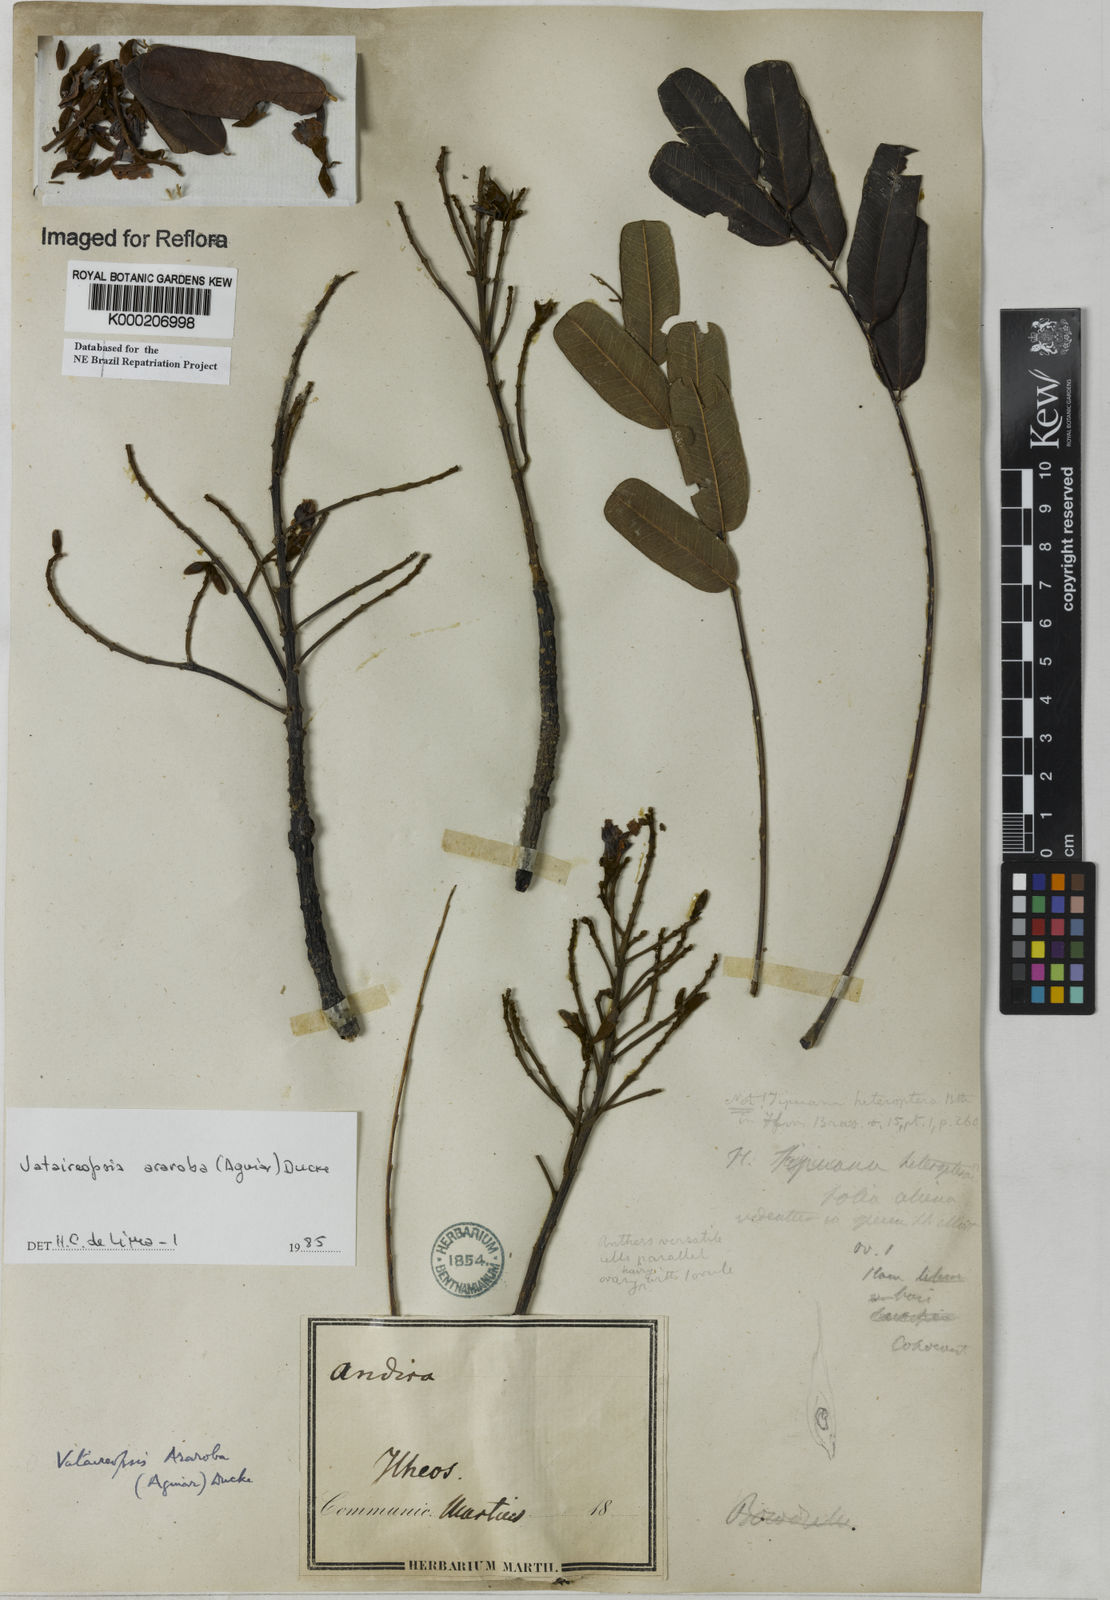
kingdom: Plantae
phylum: Tracheophyta
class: Magnoliopsida
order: Fabales
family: Fabaceae
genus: Vataireopsis
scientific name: Vataireopsis araroba
